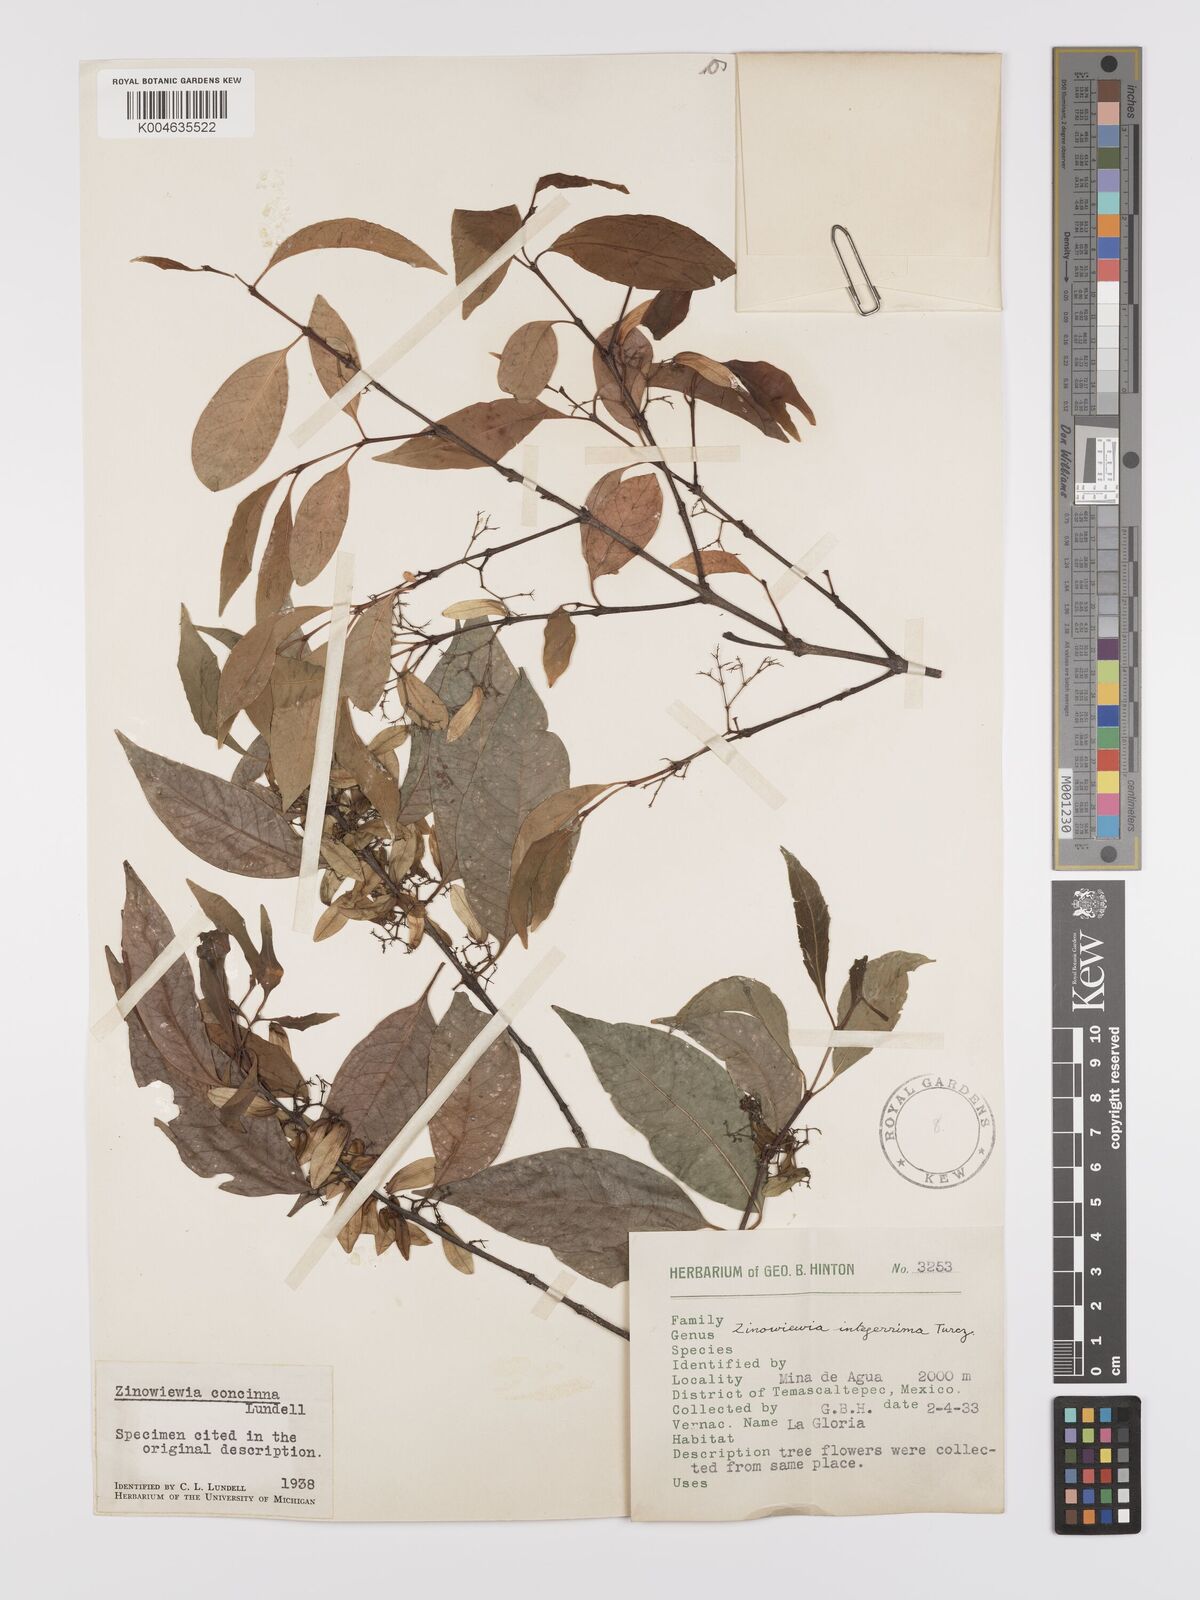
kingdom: Plantae
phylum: Tracheophyta
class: Magnoliopsida
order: Celastrales
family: Celastraceae
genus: Zinowiewia
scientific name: Zinowiewia concinna
